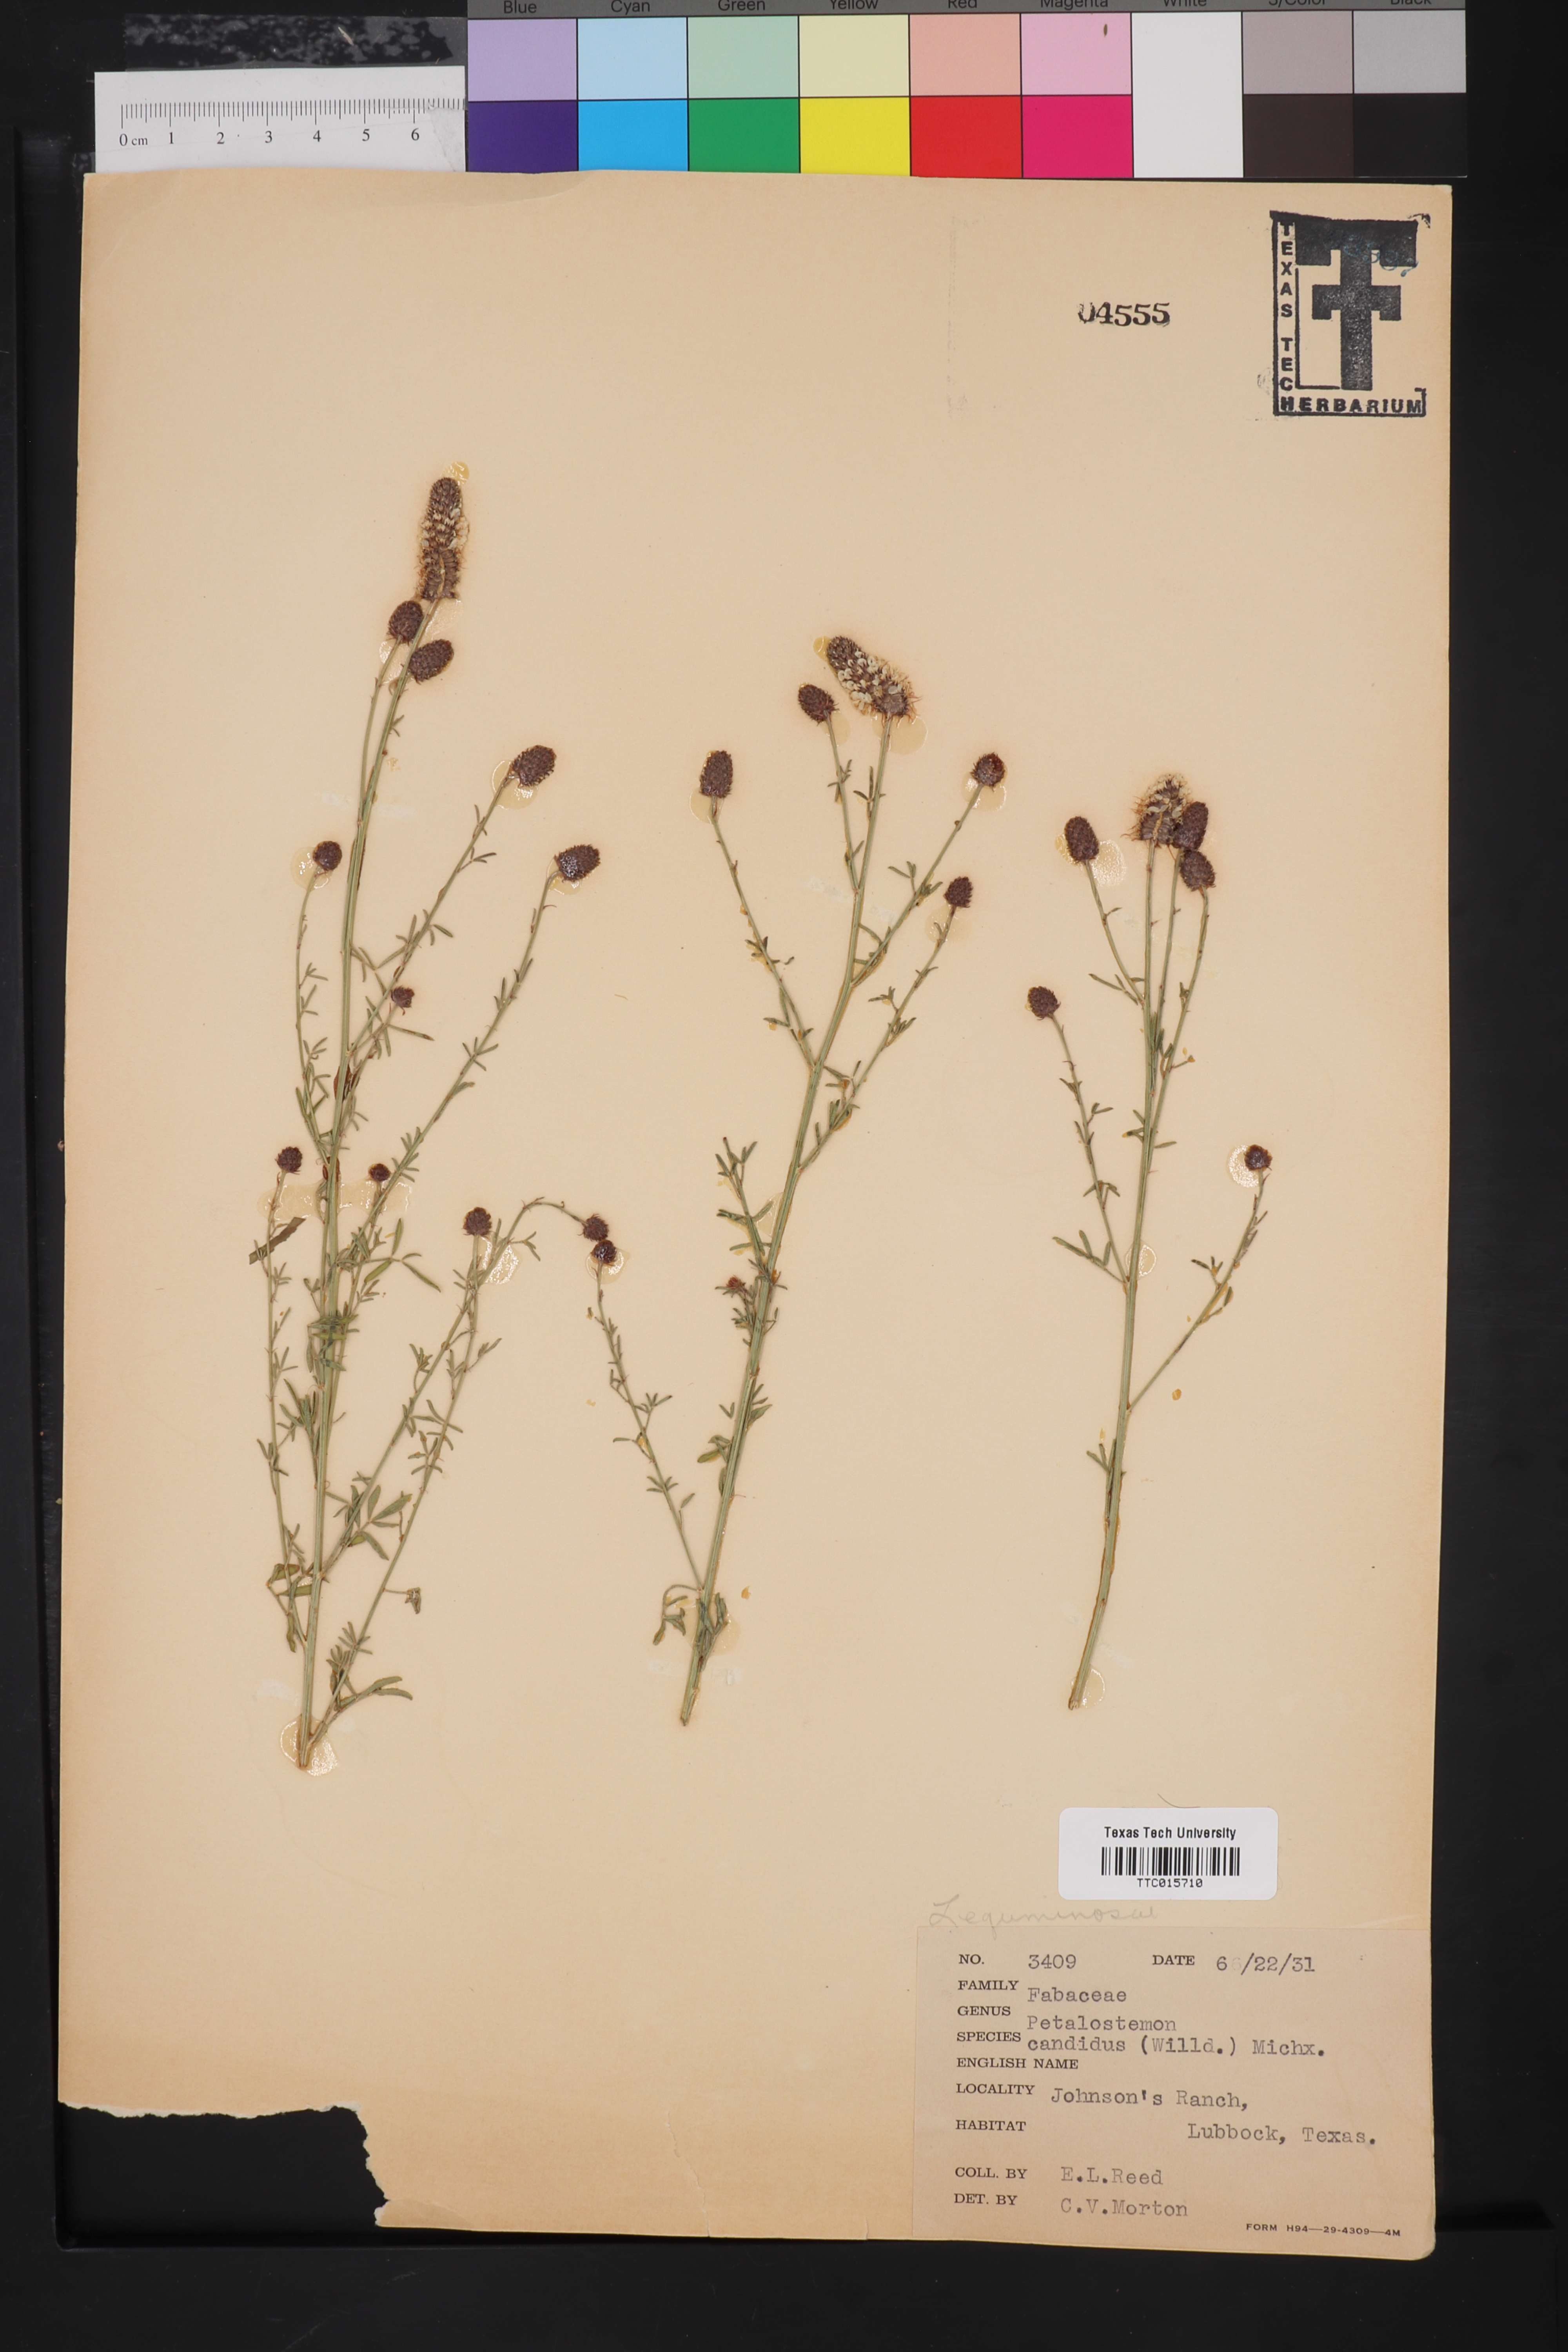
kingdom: Plantae
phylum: Tracheophyta
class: Magnoliopsida
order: Fabales
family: Fabaceae
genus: Petalostemum
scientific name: Petalostemum
